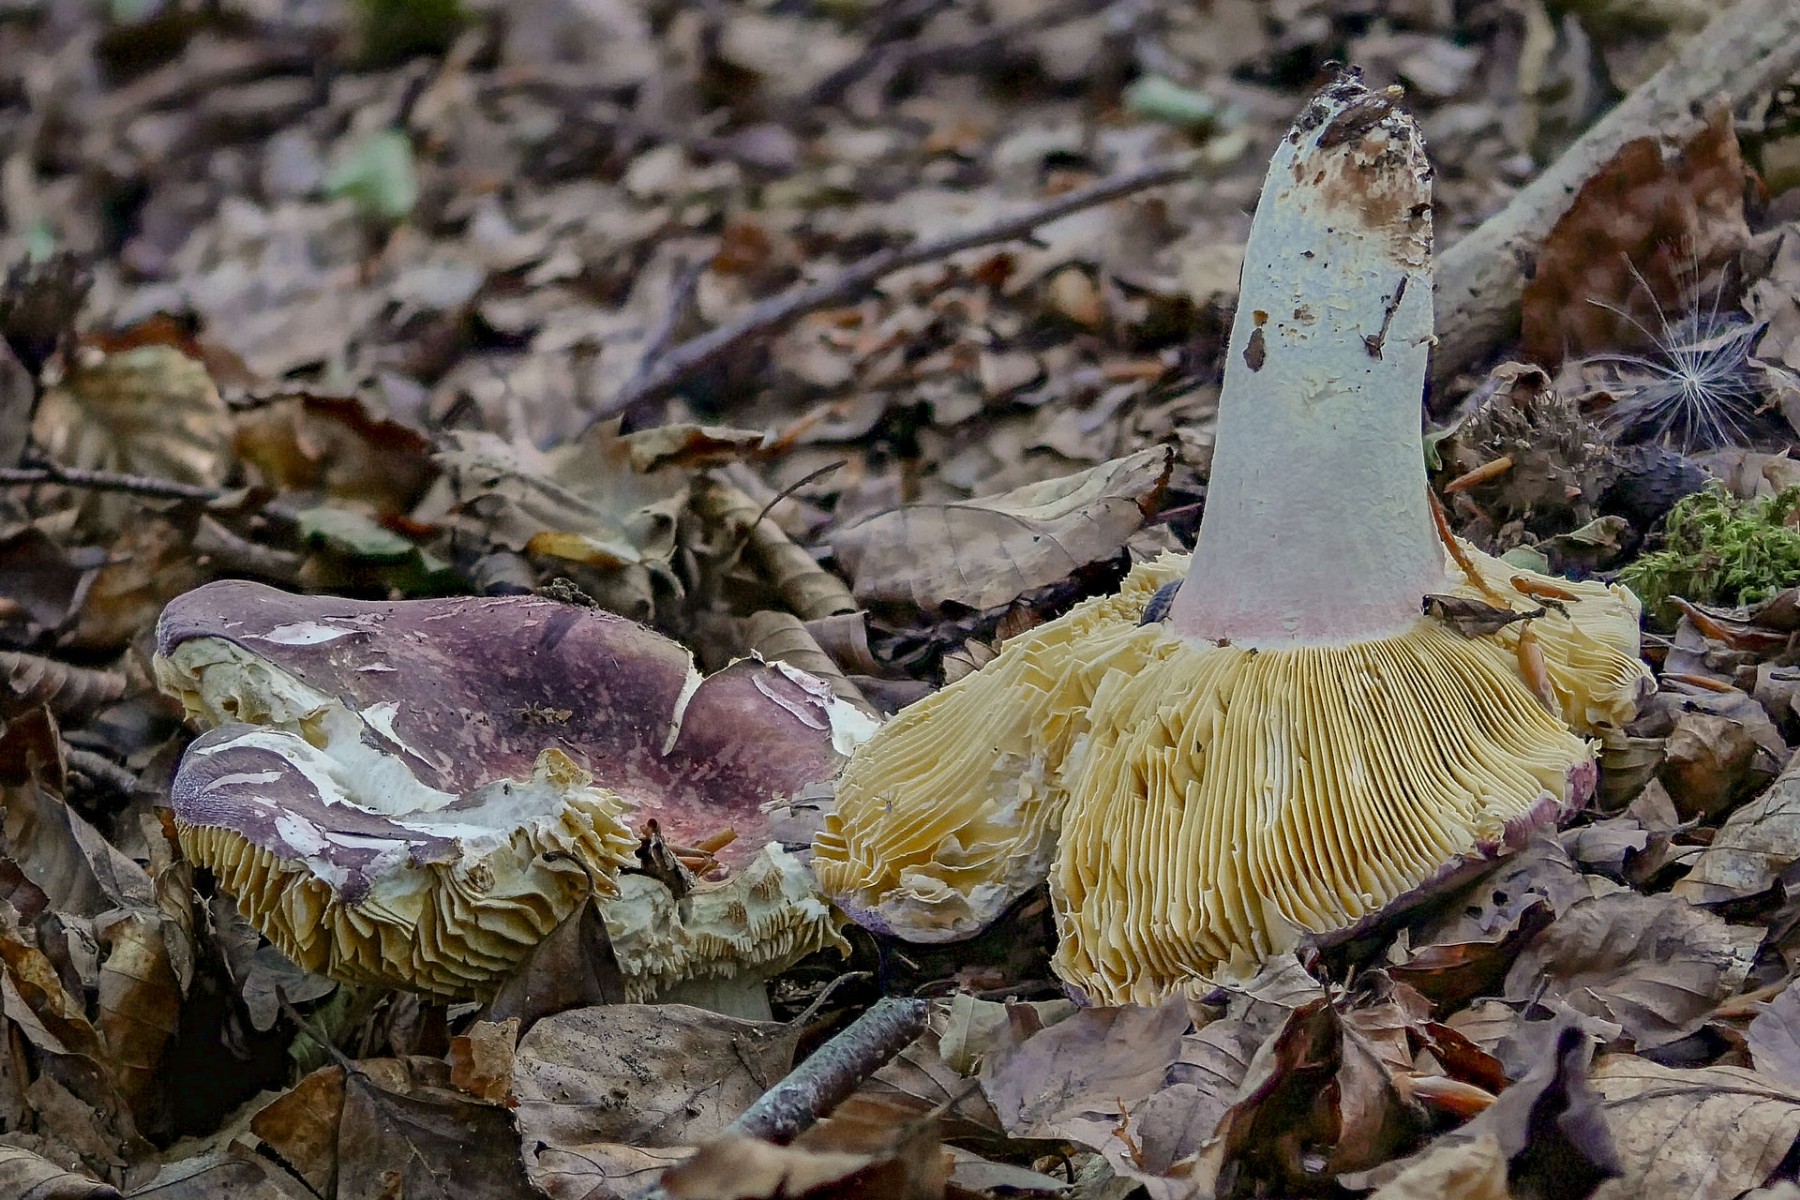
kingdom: Fungi
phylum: Basidiomycota
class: Agaricomycetes
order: Russulales
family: Russulaceae
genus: Russula
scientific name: Russula olivacea
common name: stor skørhat
